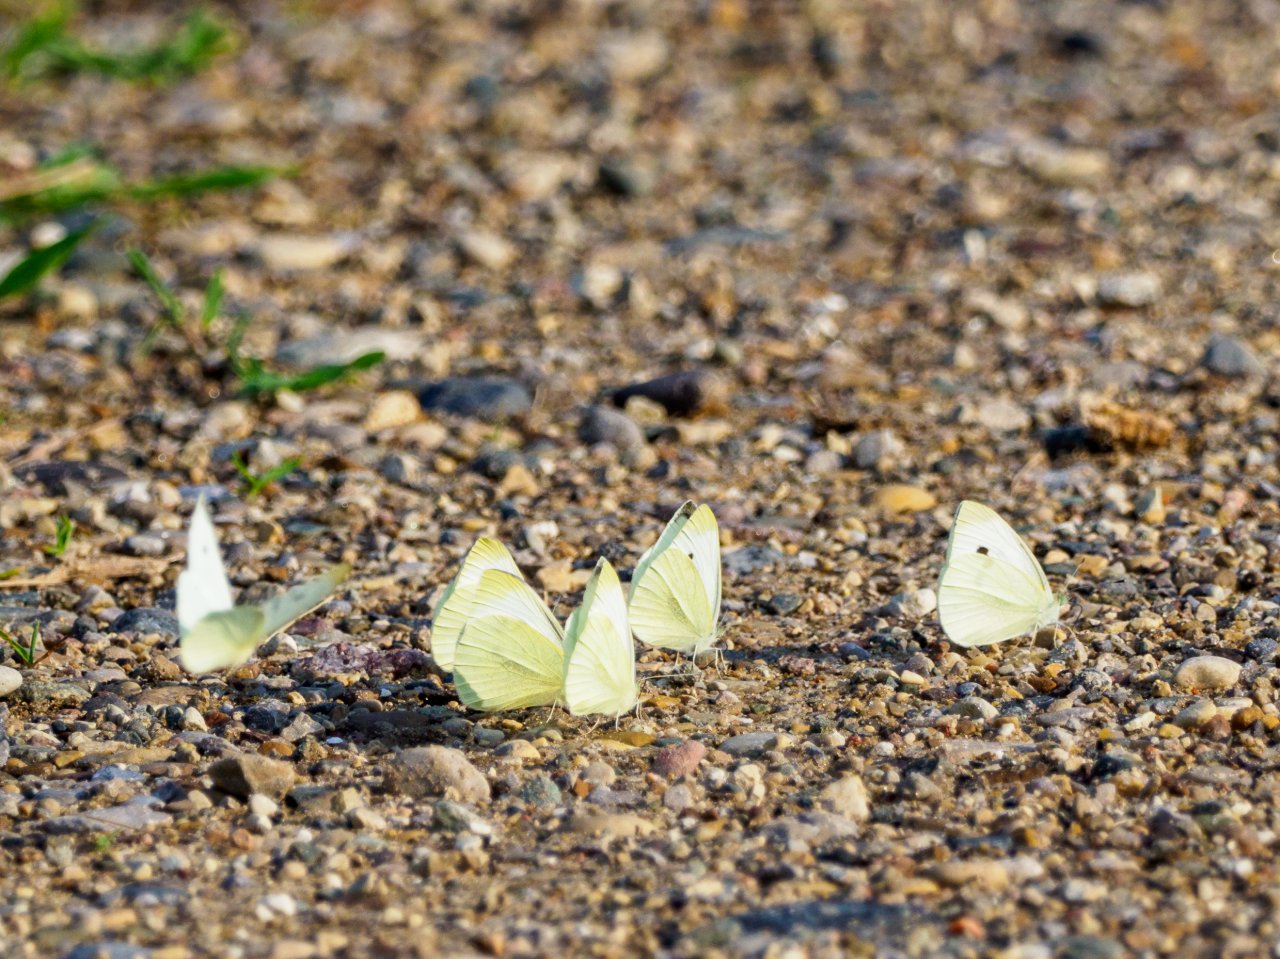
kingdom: Animalia
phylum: Arthropoda
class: Insecta
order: Lepidoptera
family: Pieridae
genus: Pieris
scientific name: Pieris rapae
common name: Cabbage White
